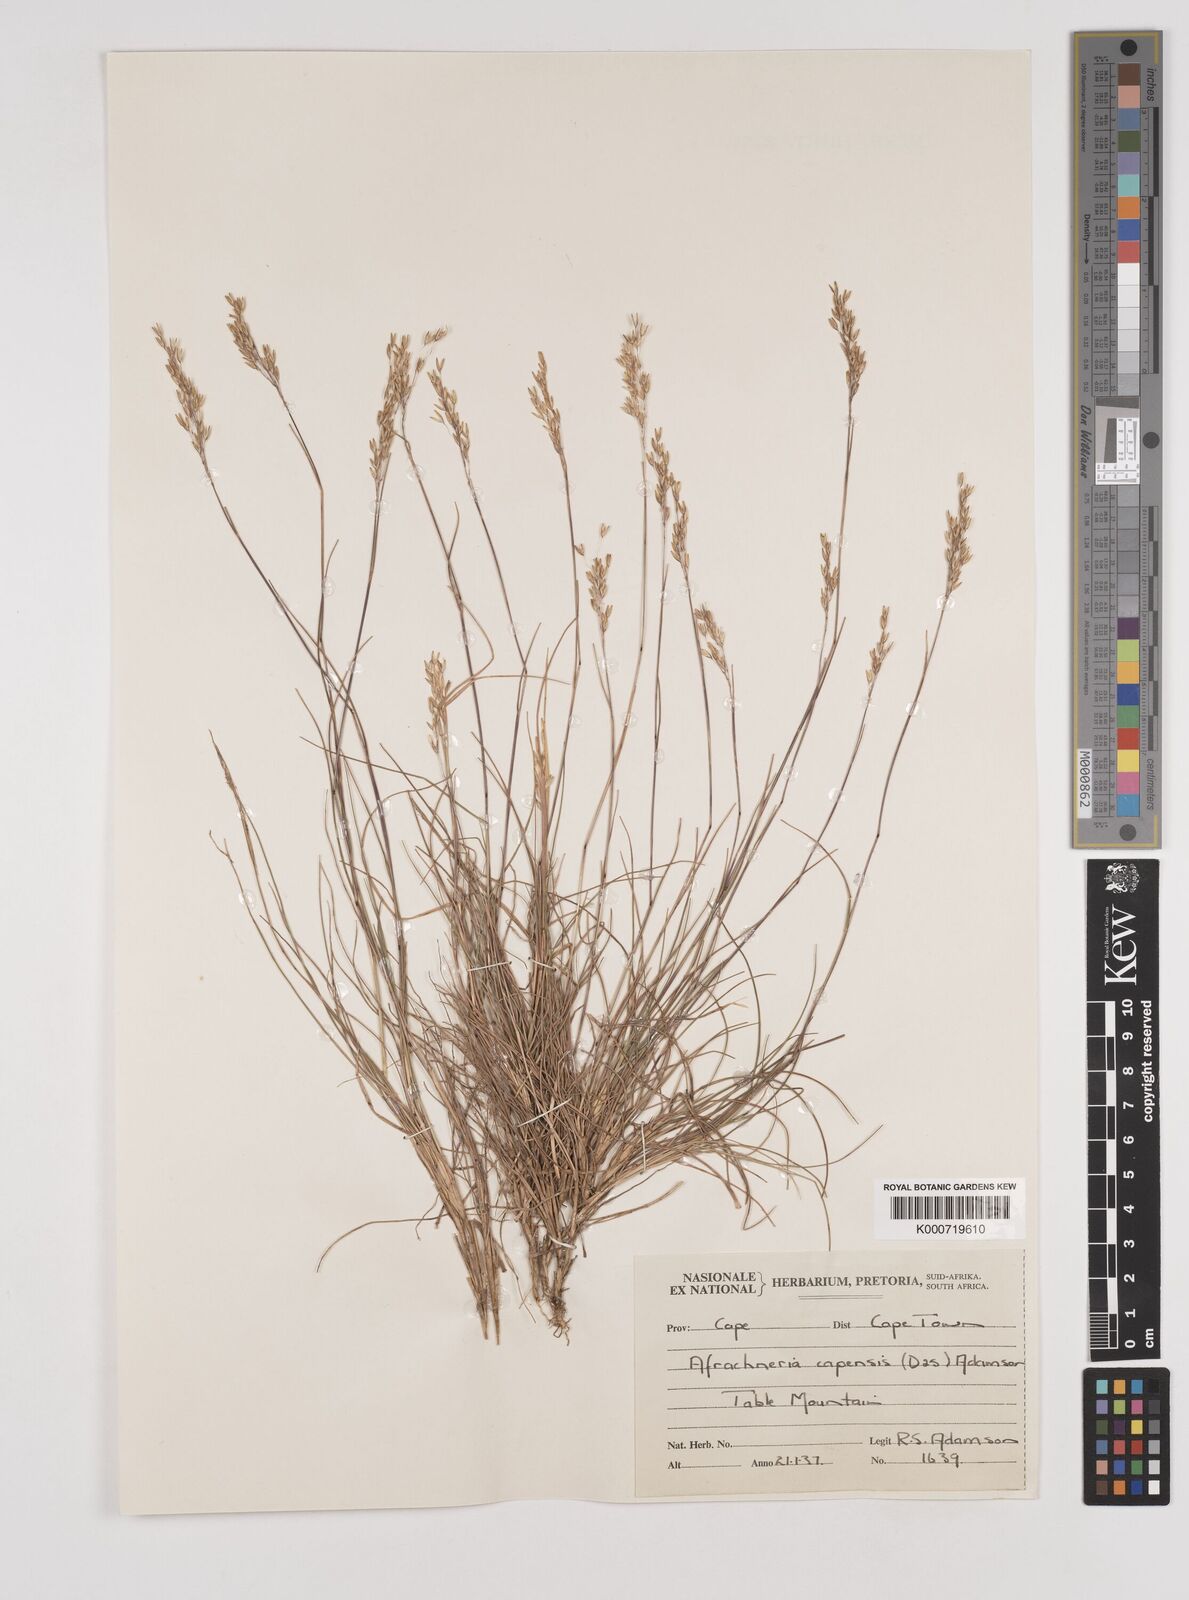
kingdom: Plantae
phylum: Tracheophyta
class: Liliopsida
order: Poales
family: Poaceae
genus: Pentameris
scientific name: Pentameris malouinensis
